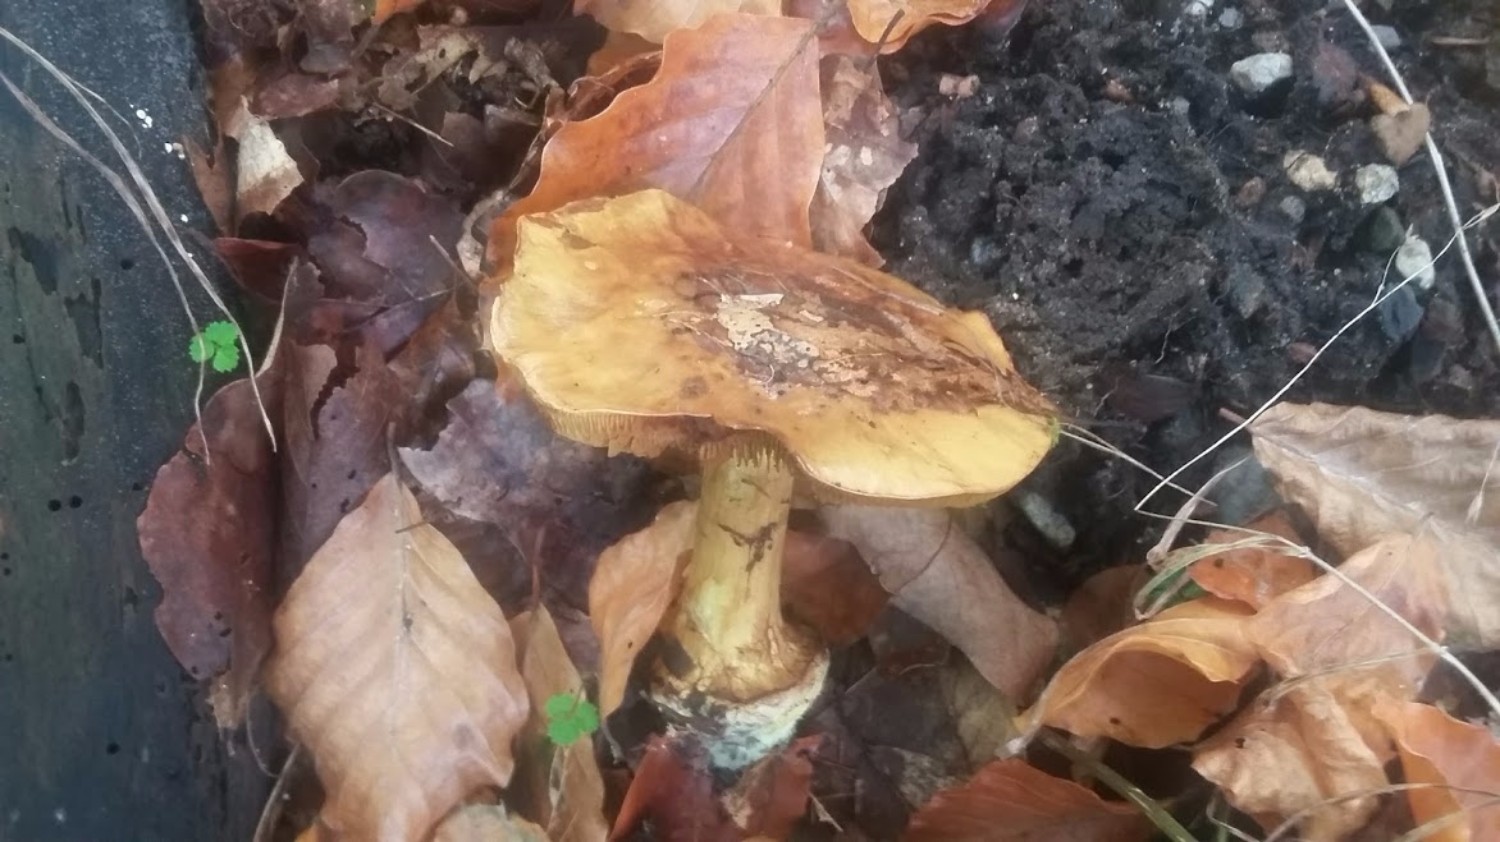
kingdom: Fungi
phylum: Basidiomycota
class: Agaricomycetes
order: Agaricales
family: Cortinariaceae
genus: Cortinarius
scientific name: Cortinarius
